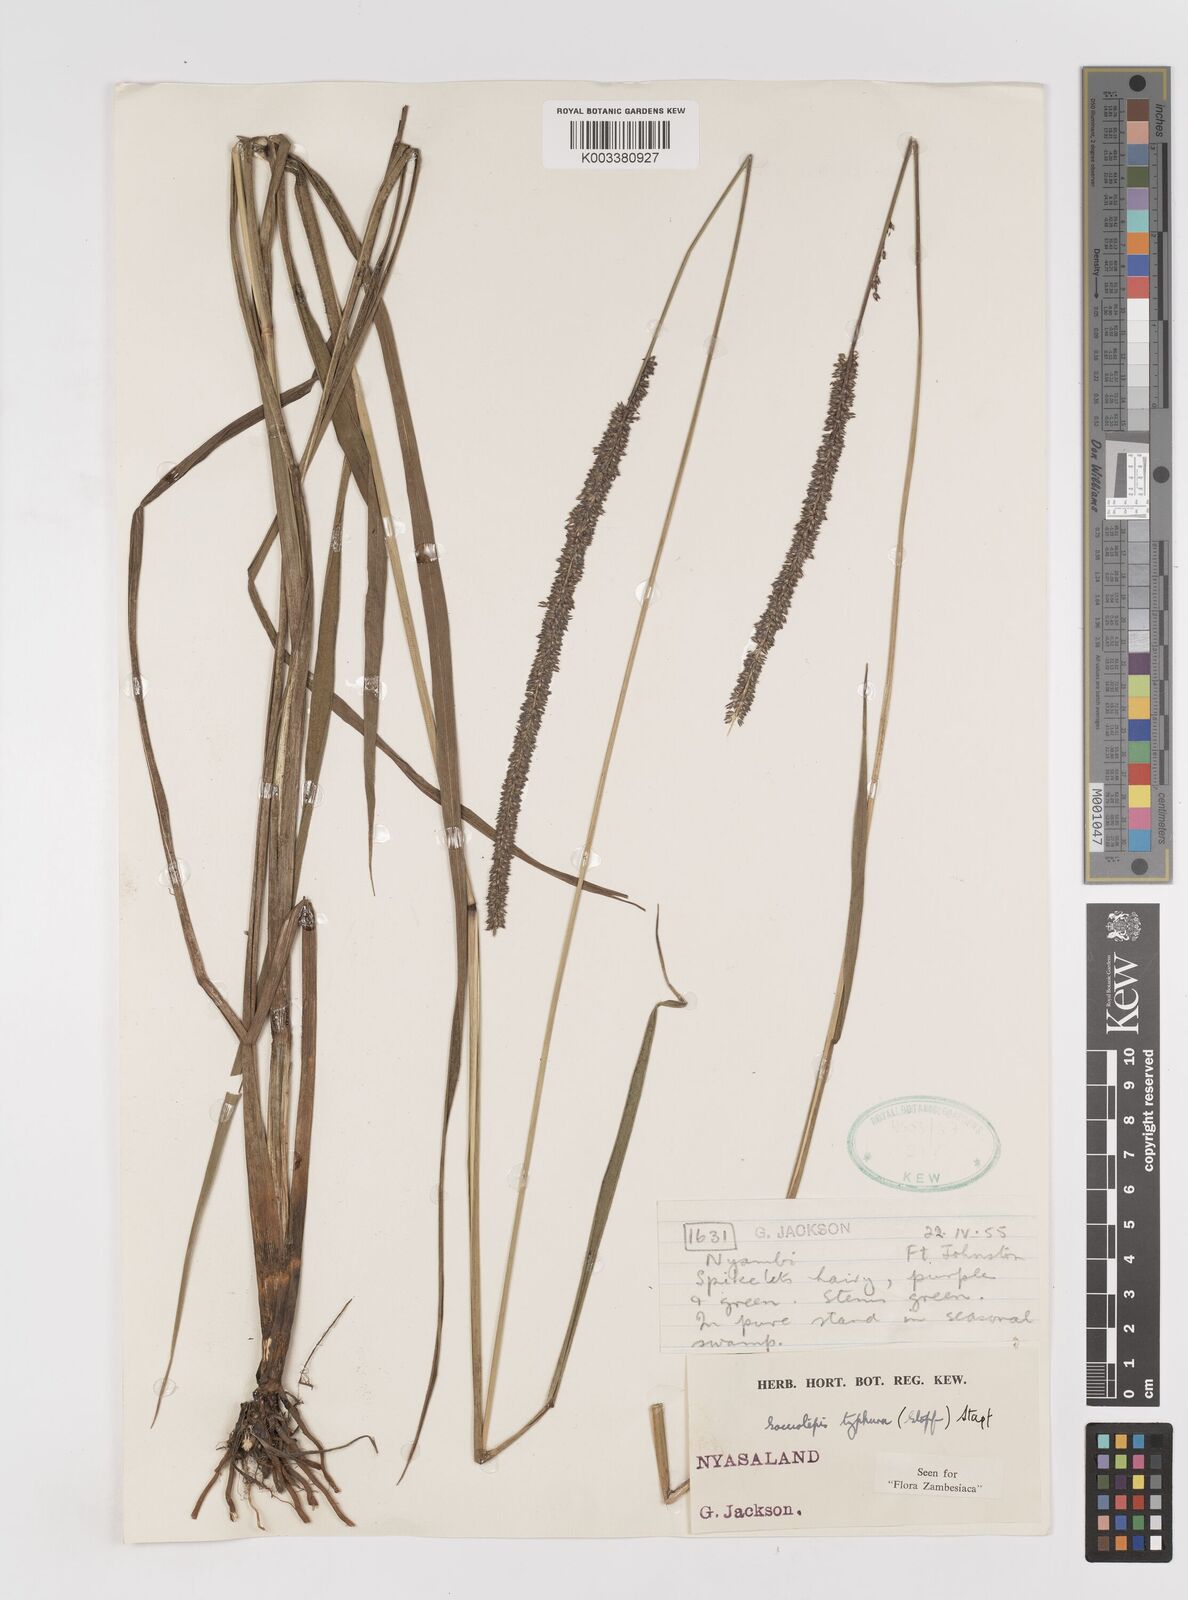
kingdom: Plantae
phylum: Tracheophyta
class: Liliopsida
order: Poales
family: Poaceae
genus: Sacciolepis
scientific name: Sacciolepis typhura
